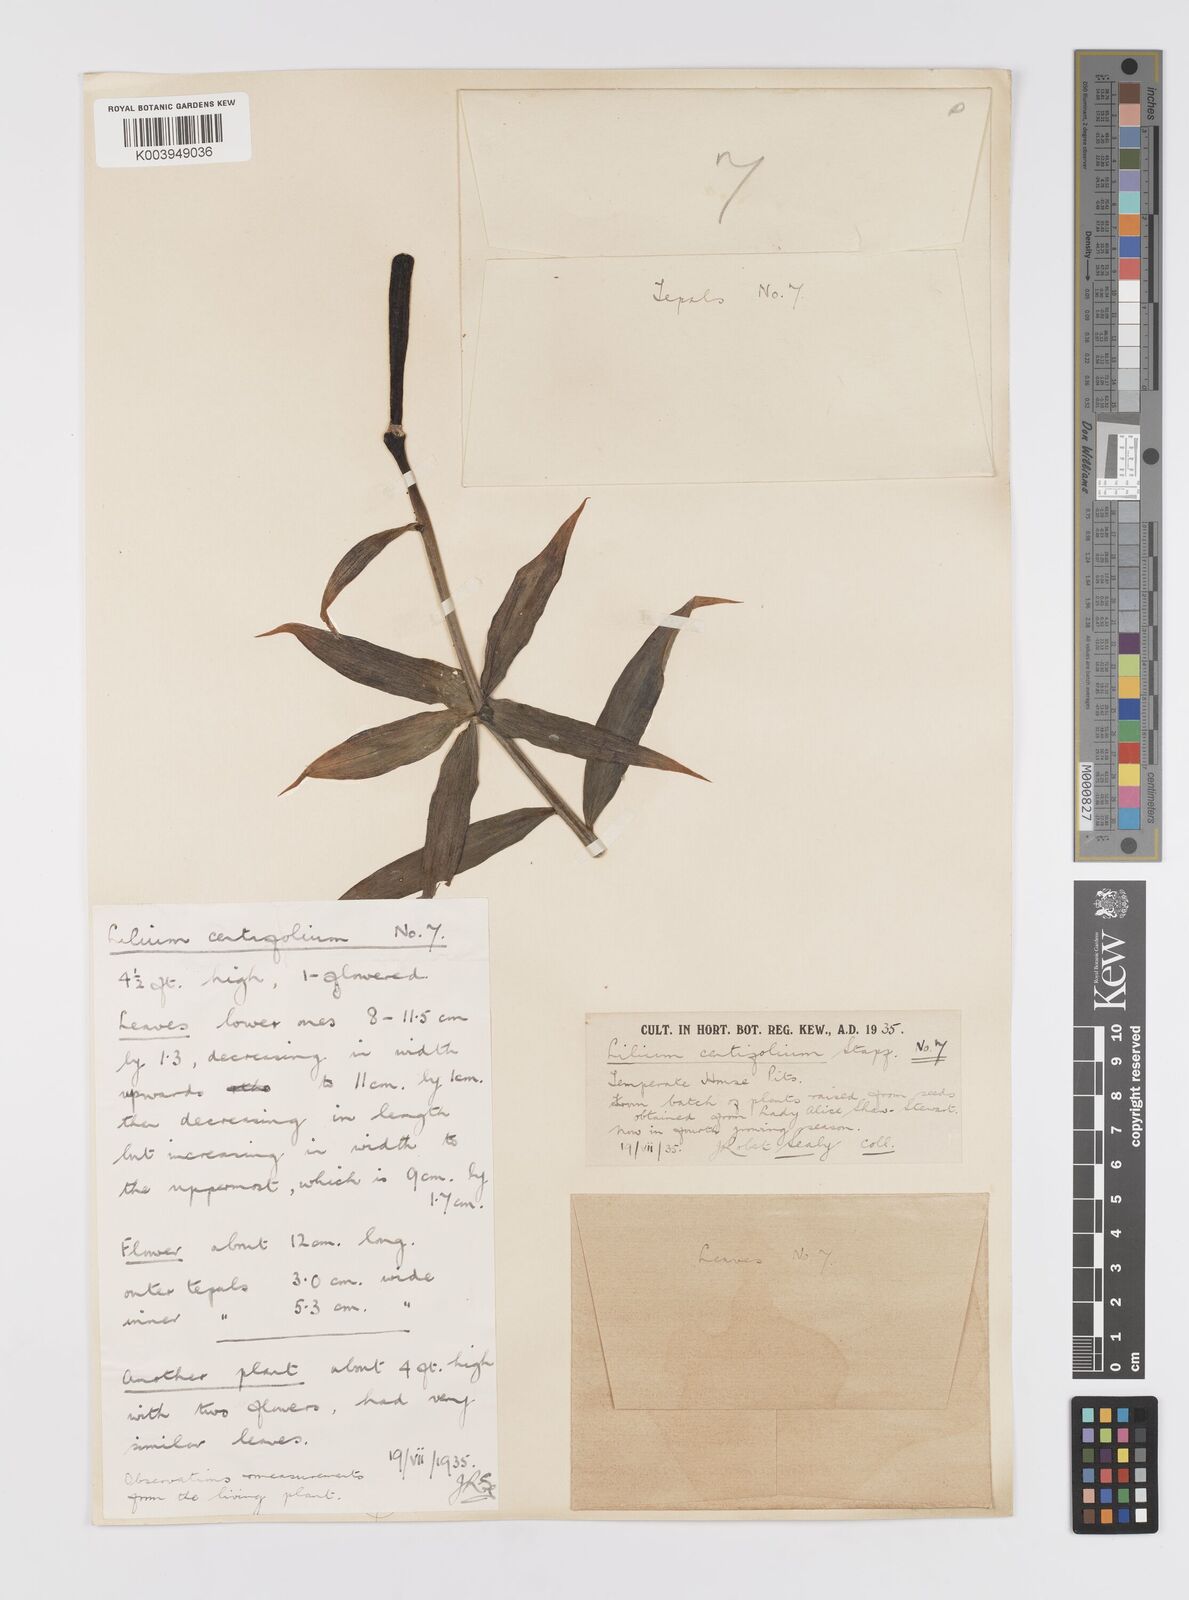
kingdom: Plantae
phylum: Tracheophyta
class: Liliopsida
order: Liliales
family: Liliaceae
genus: Lilium
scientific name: Lilium sargentiae
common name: Sargent lily
